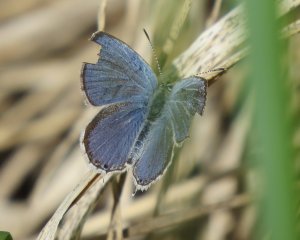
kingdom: Animalia
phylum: Arthropoda
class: Insecta
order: Lepidoptera
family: Lycaenidae
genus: Elkalyce
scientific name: Elkalyce amyntula
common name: Western Tailed-Blue
